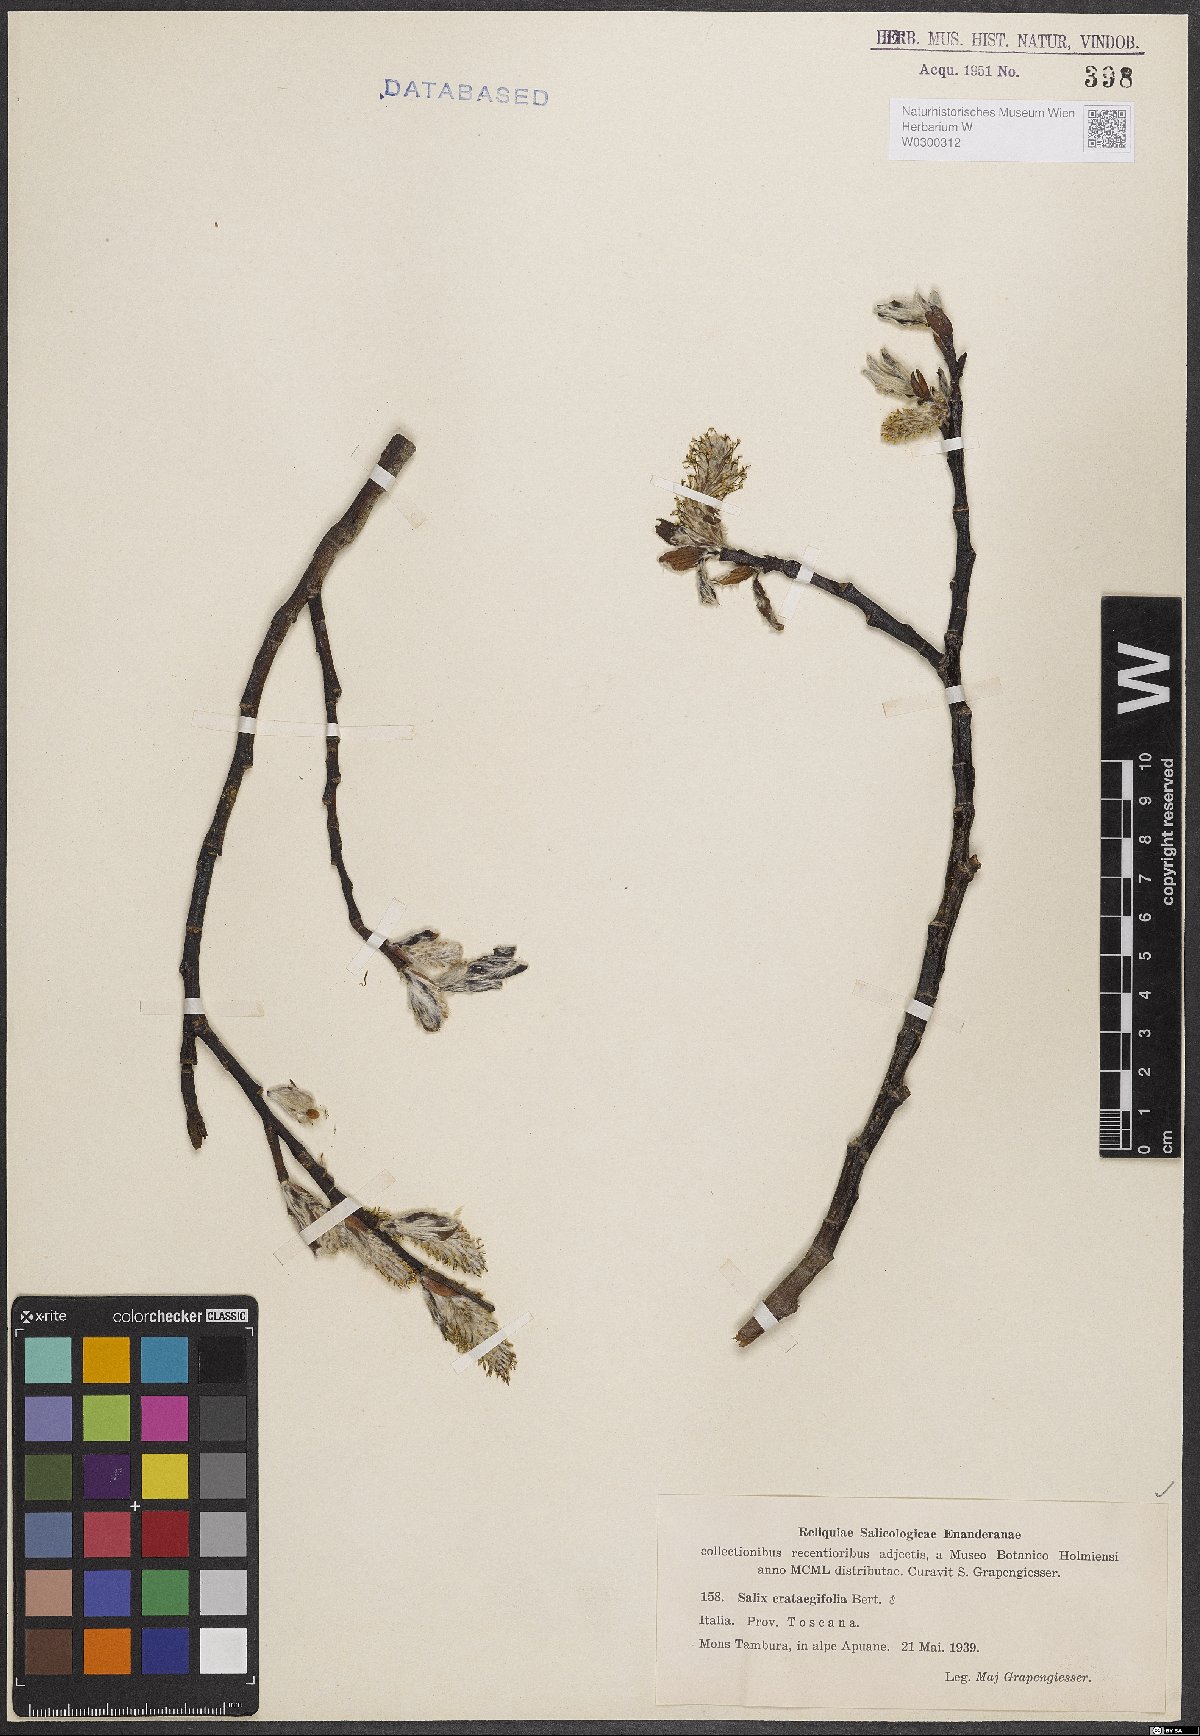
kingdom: Plantae
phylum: Tracheophyta
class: Magnoliopsida
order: Malpighiales
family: Salicaceae
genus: Salix
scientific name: Salix crataegifolia
